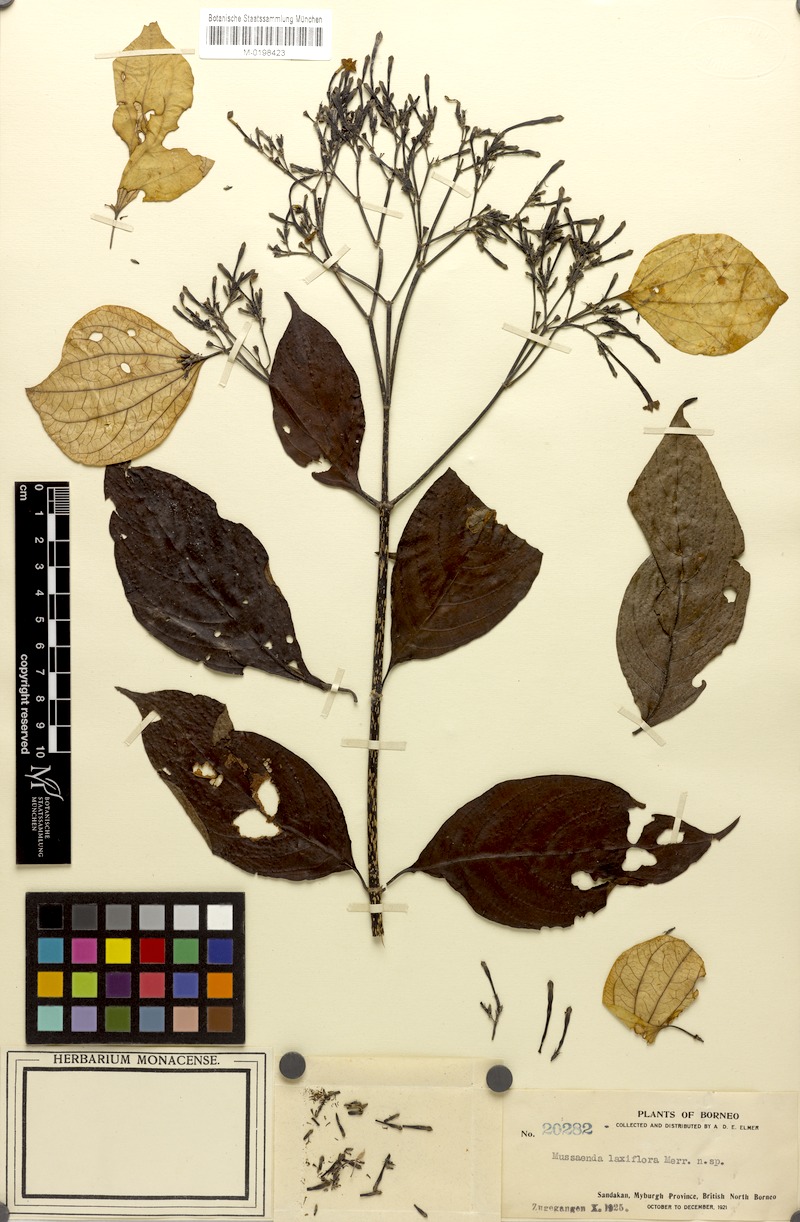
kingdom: Plantae
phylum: Tracheophyta
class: Magnoliopsida
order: Gentianales
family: Rubiaceae
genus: Mussaenda
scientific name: Mussaenda sandakana
